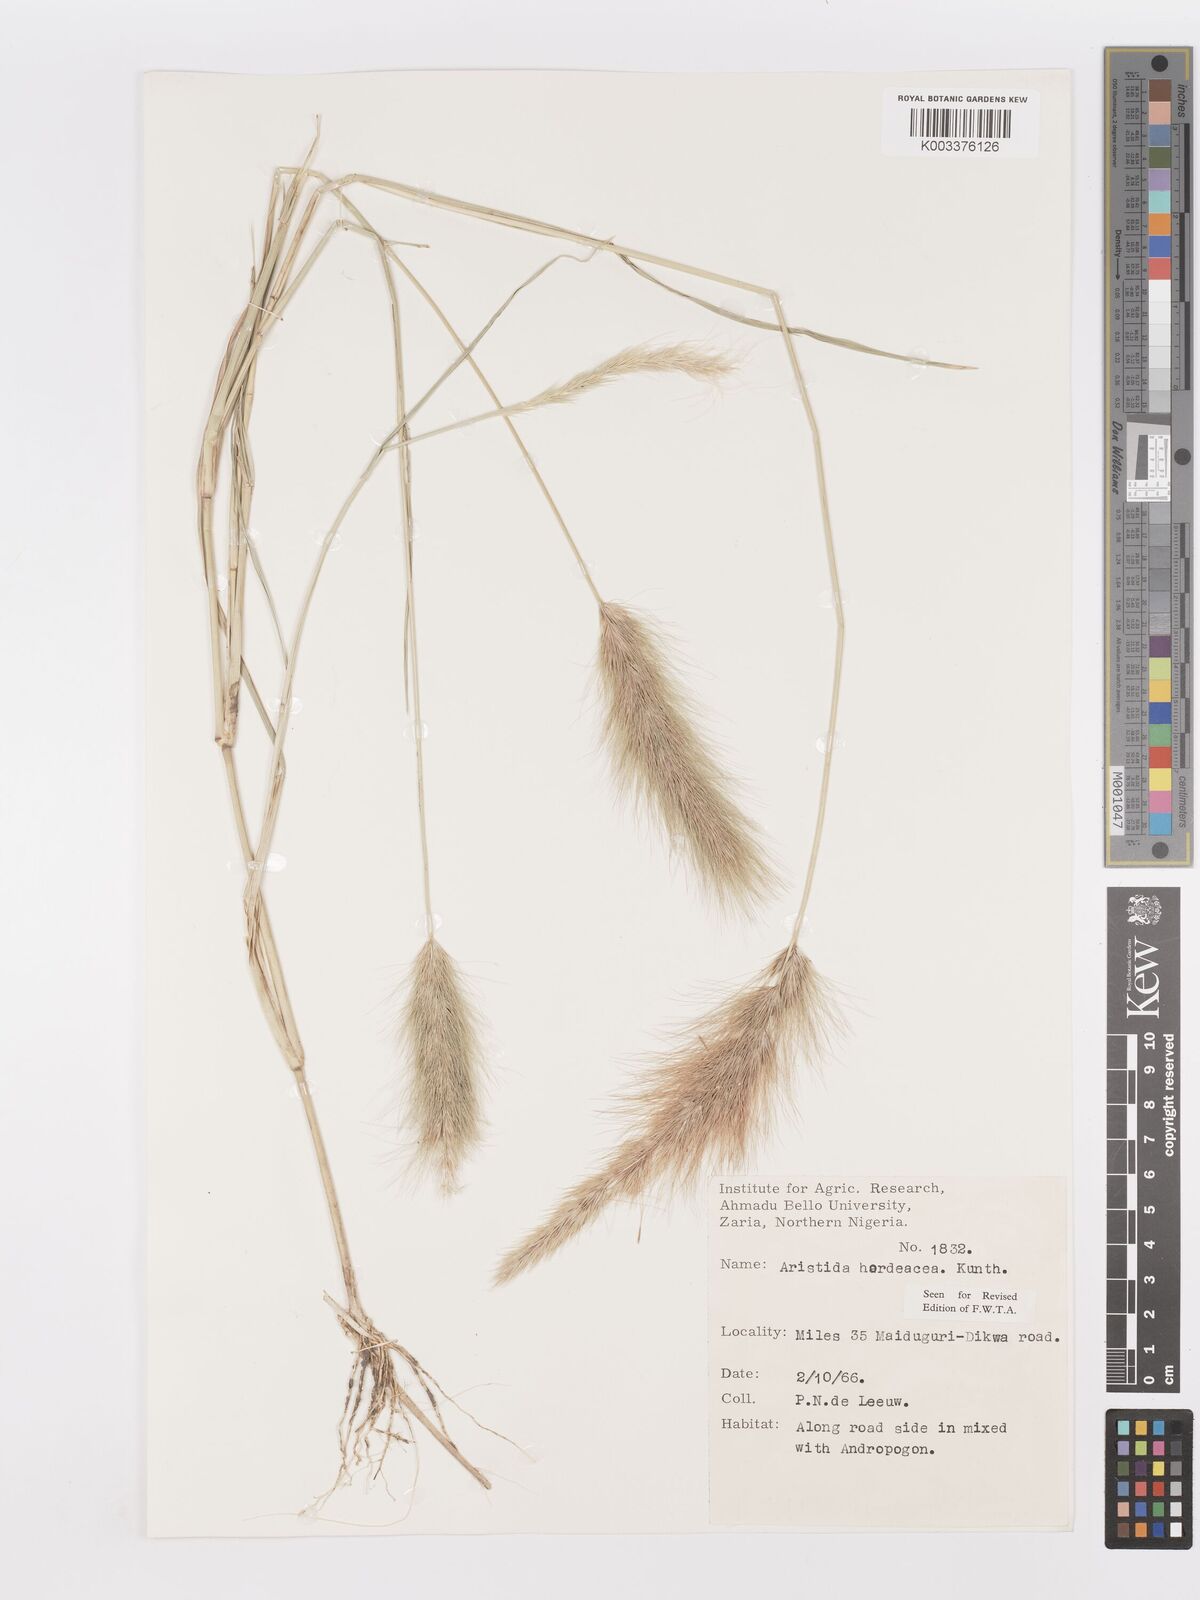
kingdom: Plantae
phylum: Tracheophyta
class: Liliopsida
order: Poales
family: Poaceae
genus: Aristida
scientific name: Aristida hordeacea
